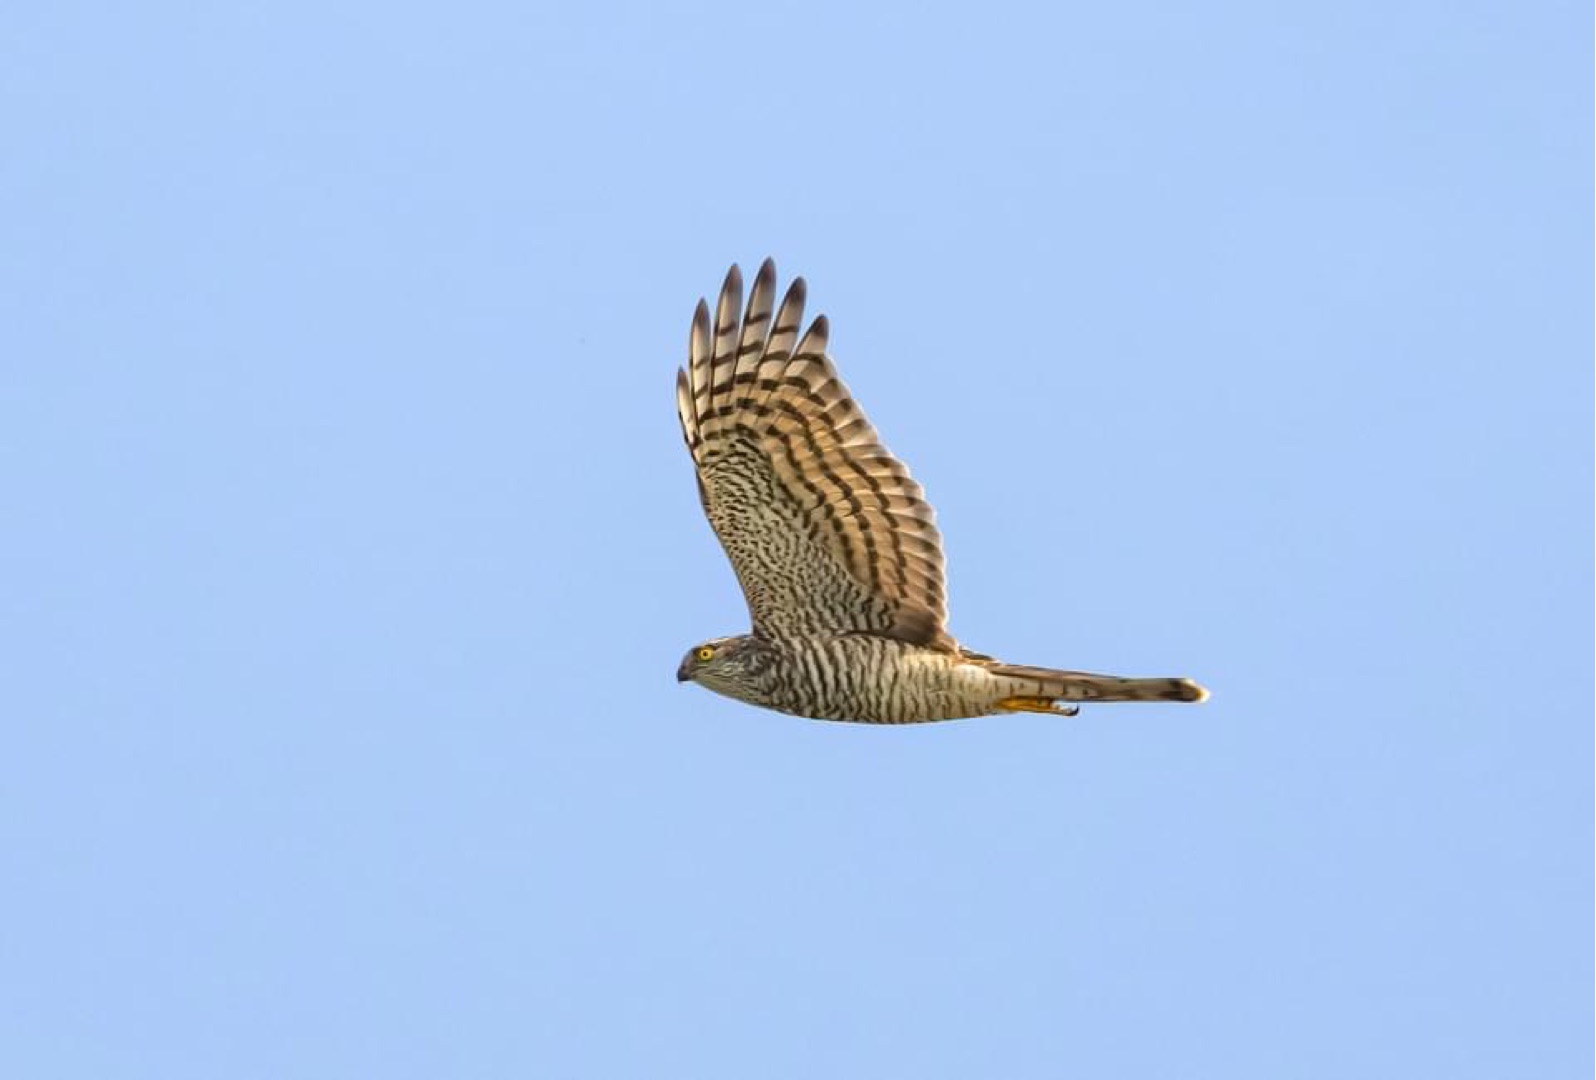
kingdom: Animalia
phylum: Chordata
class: Aves
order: Accipitriformes
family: Accipitridae
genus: Accipiter
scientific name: Accipiter nisus
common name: Spurvehøg
